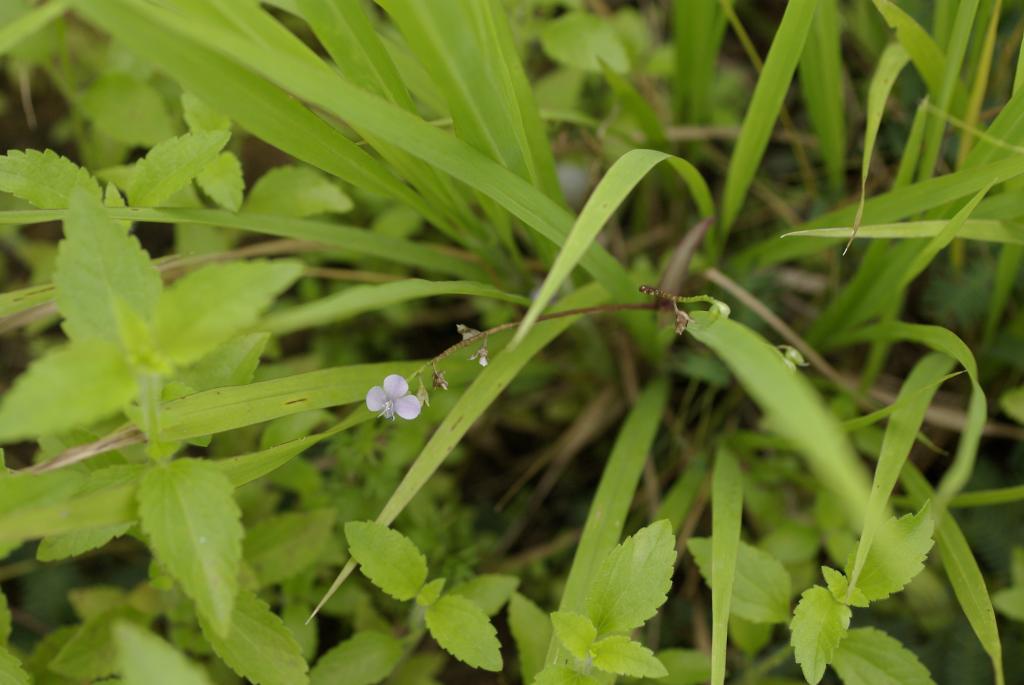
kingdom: Plantae
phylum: Tracheophyta
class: Liliopsida
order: Commelinales
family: Commelinaceae
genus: Murdannia
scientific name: Murdannia loriformis
